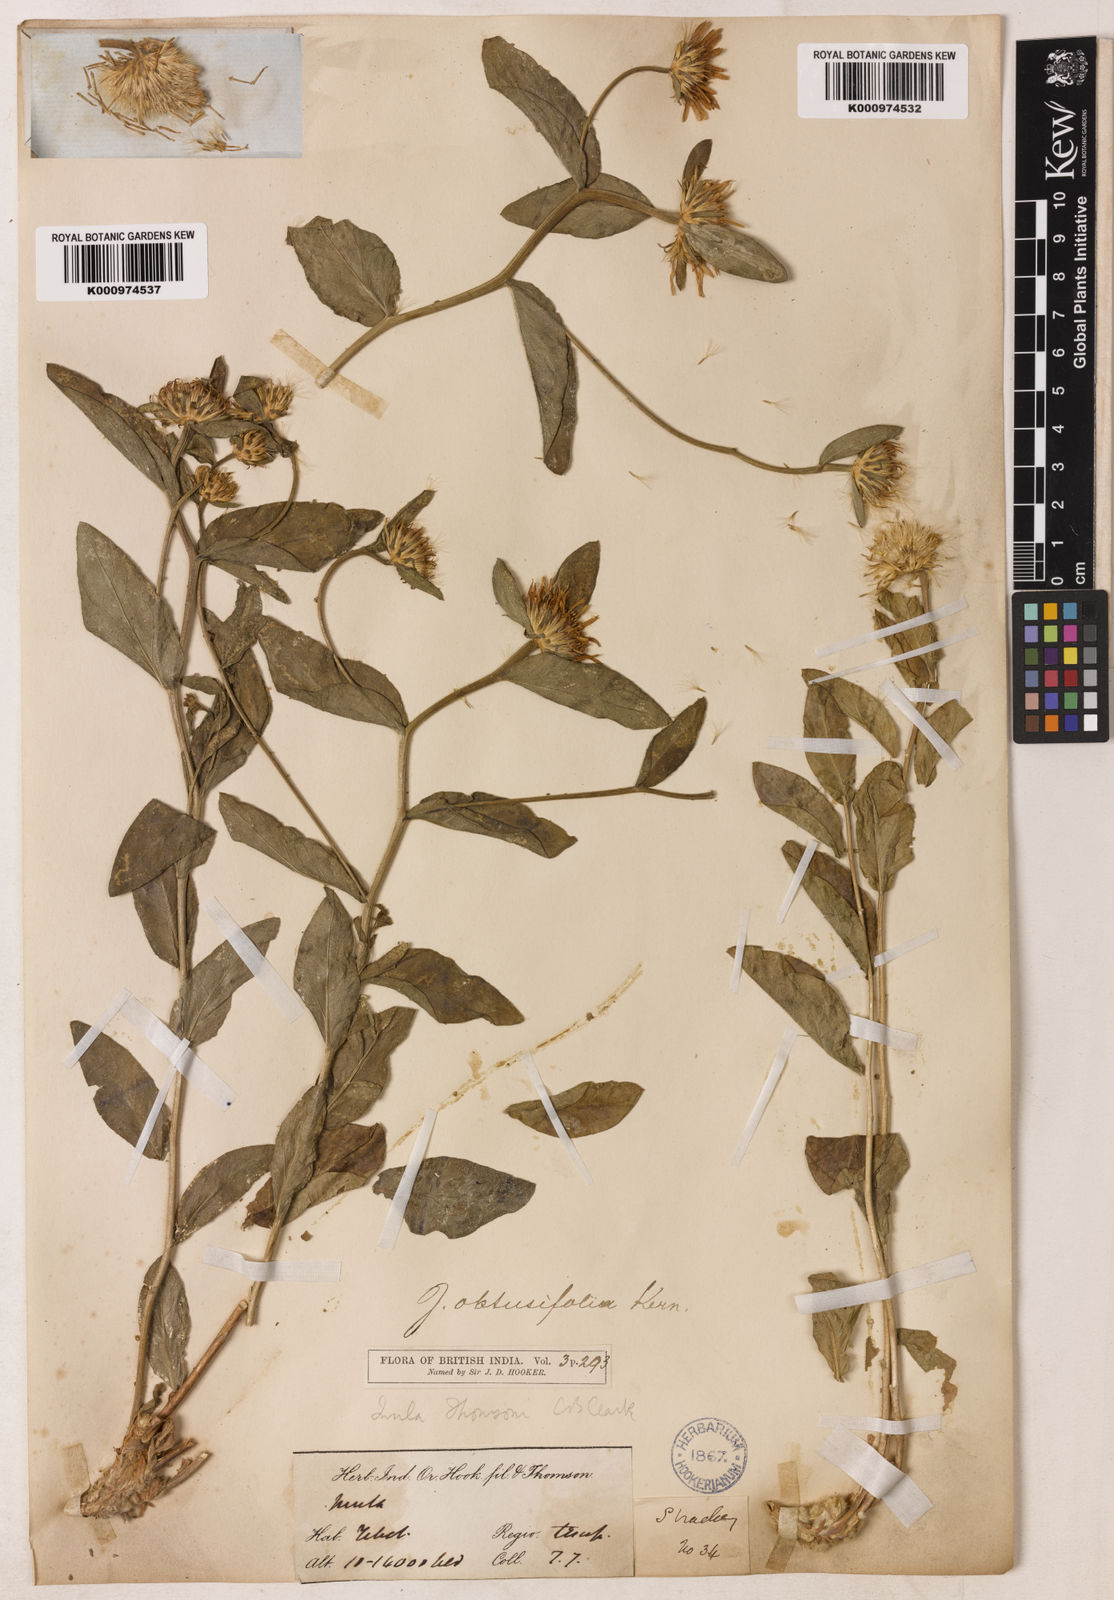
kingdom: Plantae
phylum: Tracheophyta
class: Magnoliopsida
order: Asterales
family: Asteraceae
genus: Inula
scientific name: Inula obtusifolia
